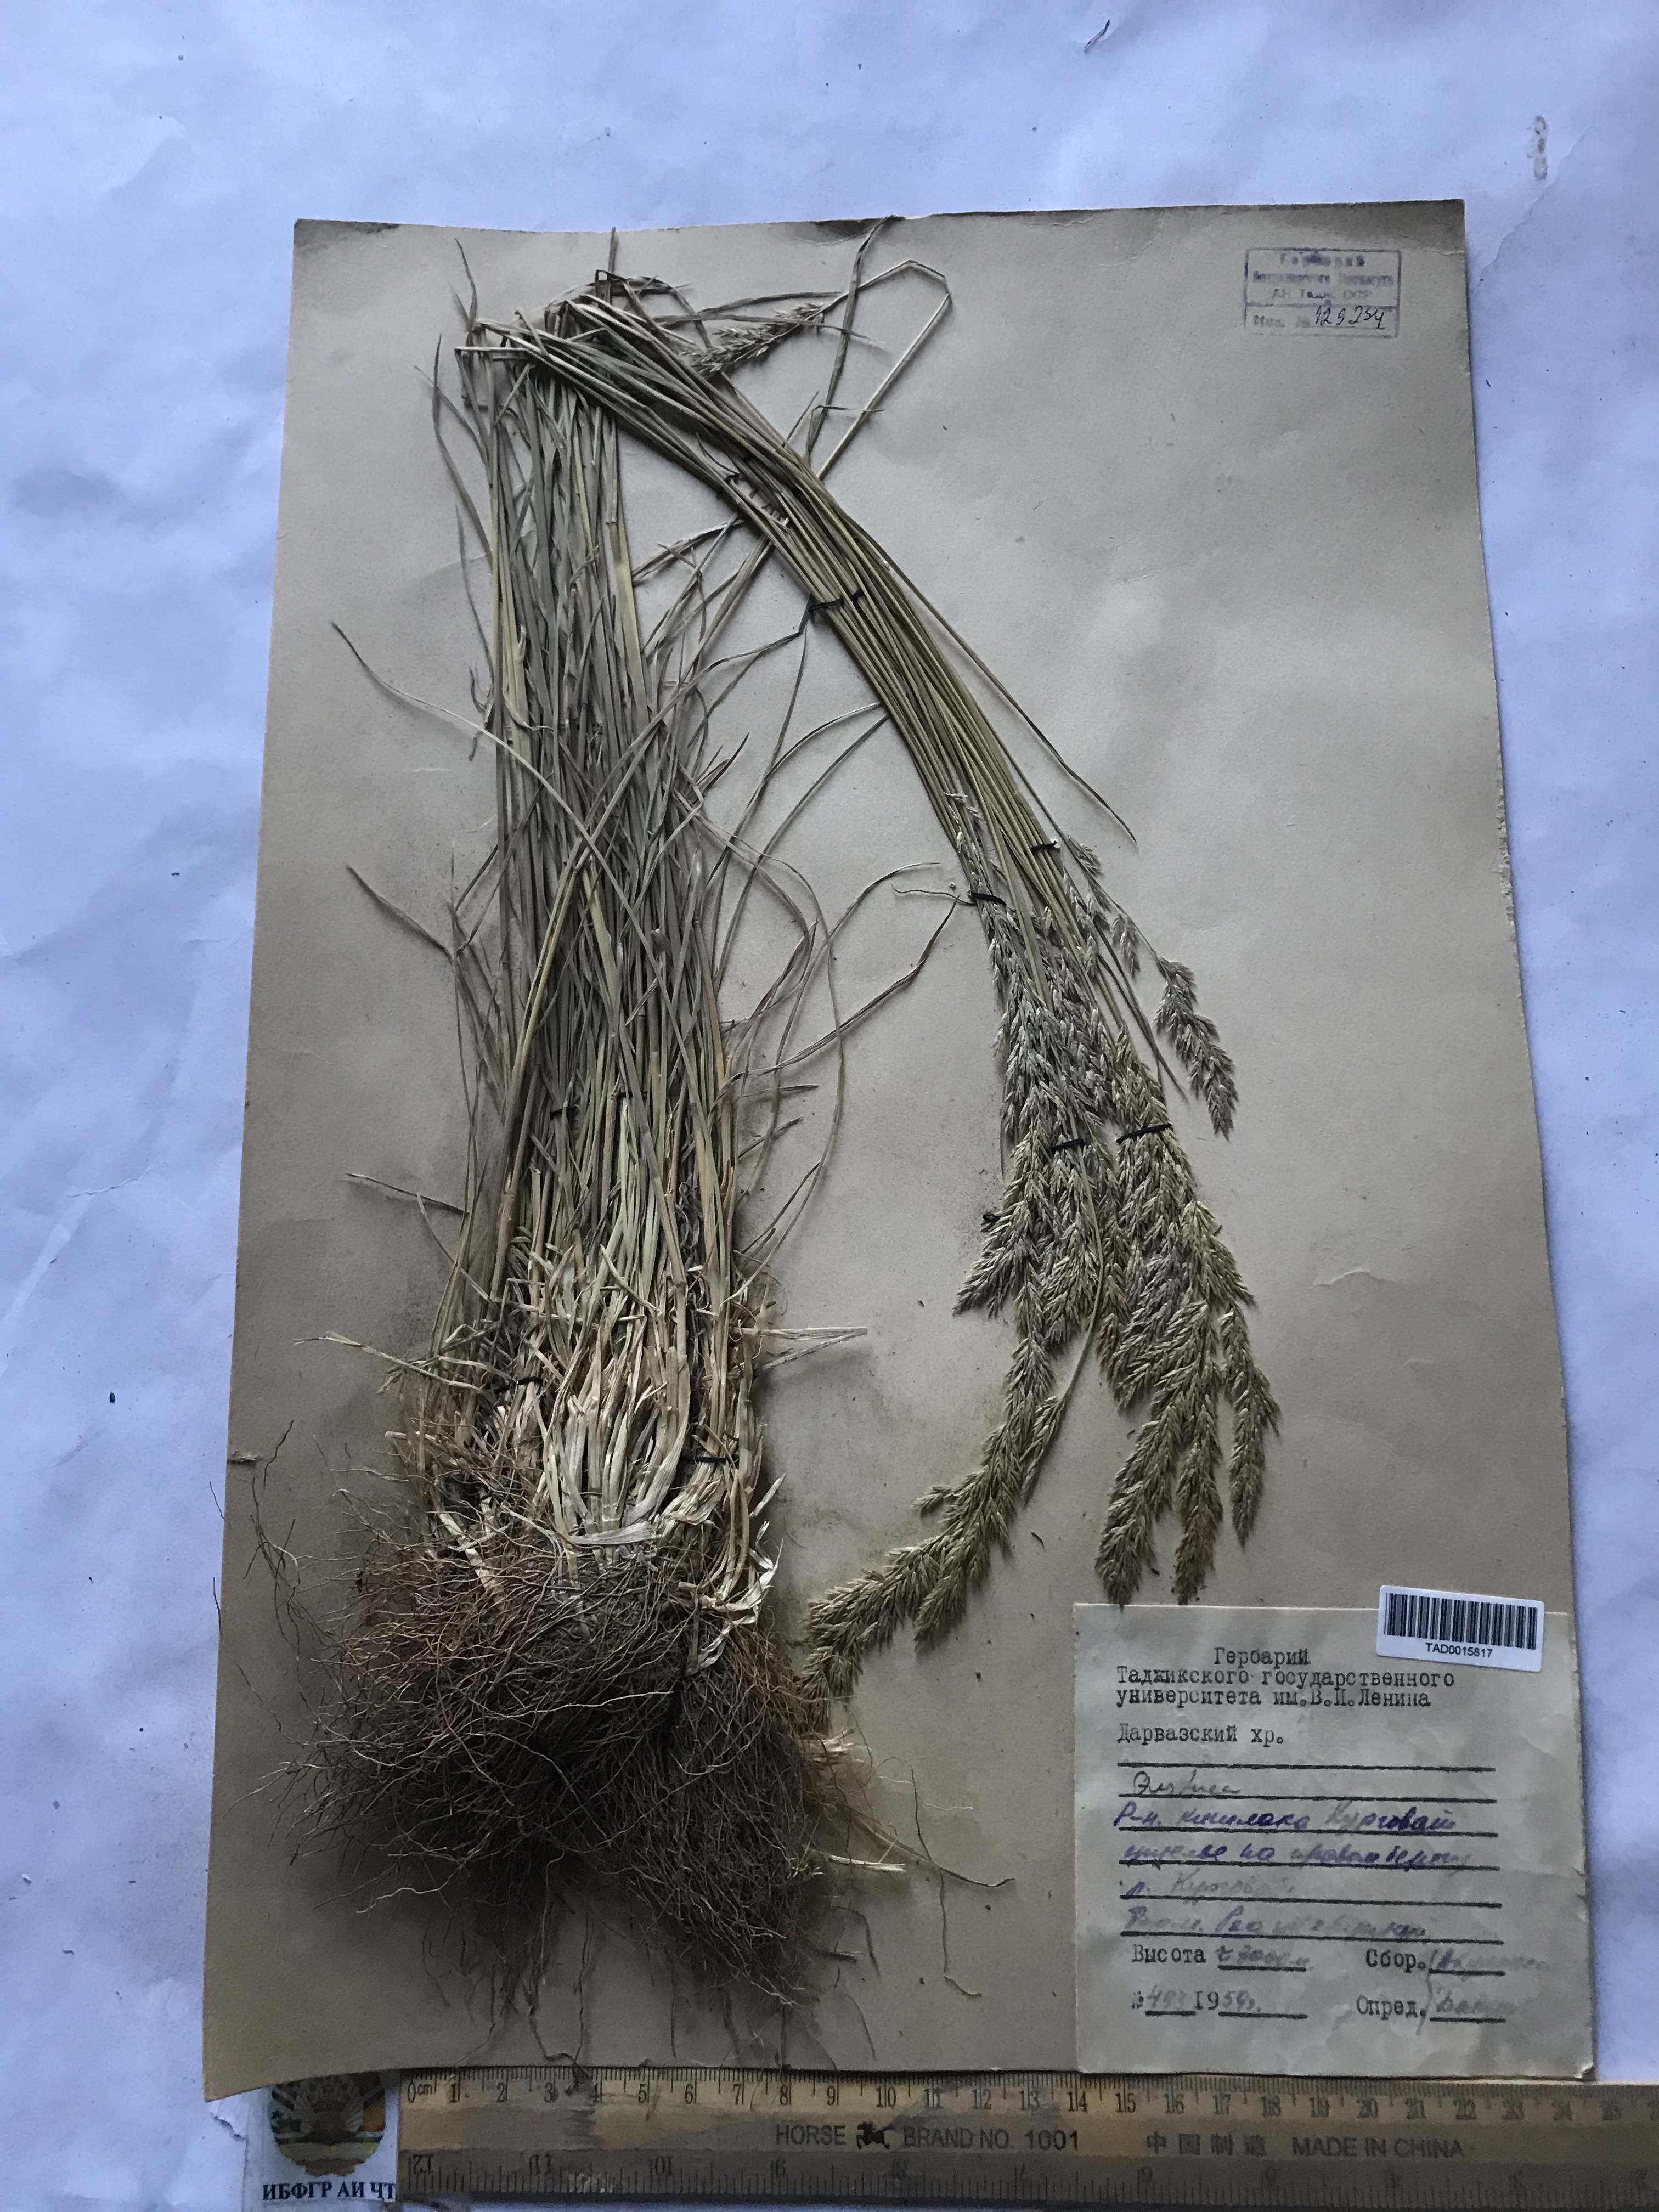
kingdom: Plantae
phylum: Tracheophyta
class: Liliopsida
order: Poales
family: Poaceae
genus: Festuca
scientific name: Festuca rubra
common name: Red fescue
